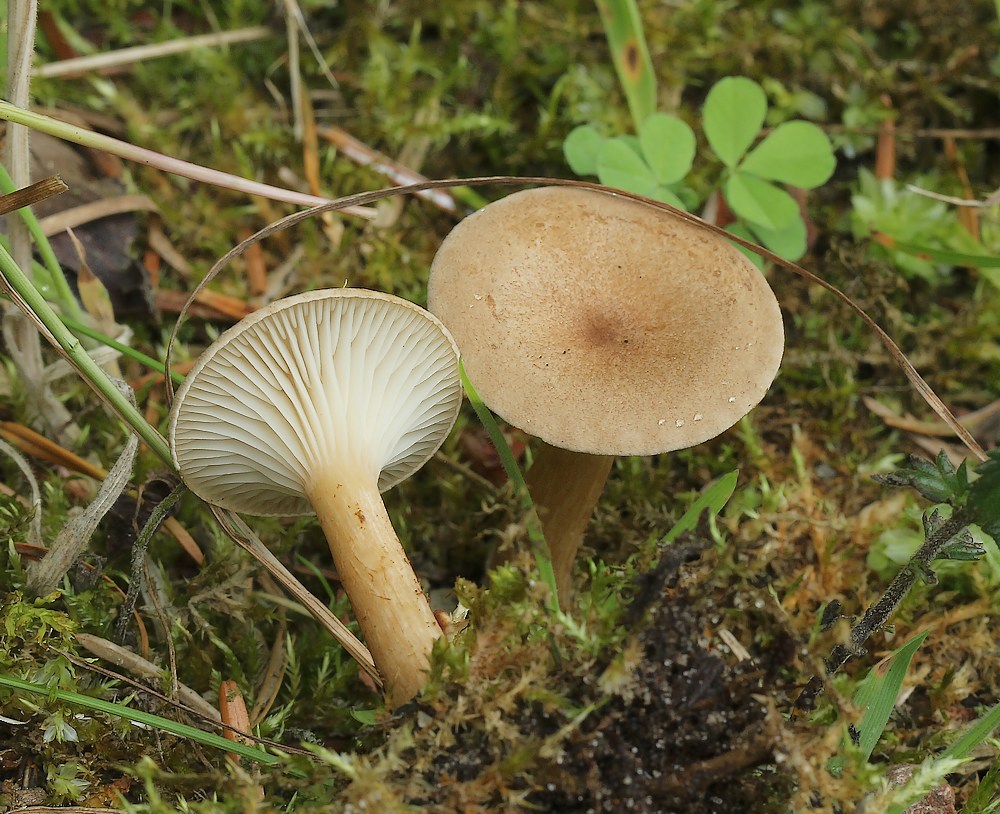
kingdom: Fungi
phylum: Basidiomycota
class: Agaricomycetes
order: Agaricales
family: Tricholomataceae
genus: Infundibulicybe
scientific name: Infundibulicybe
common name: tragthat
